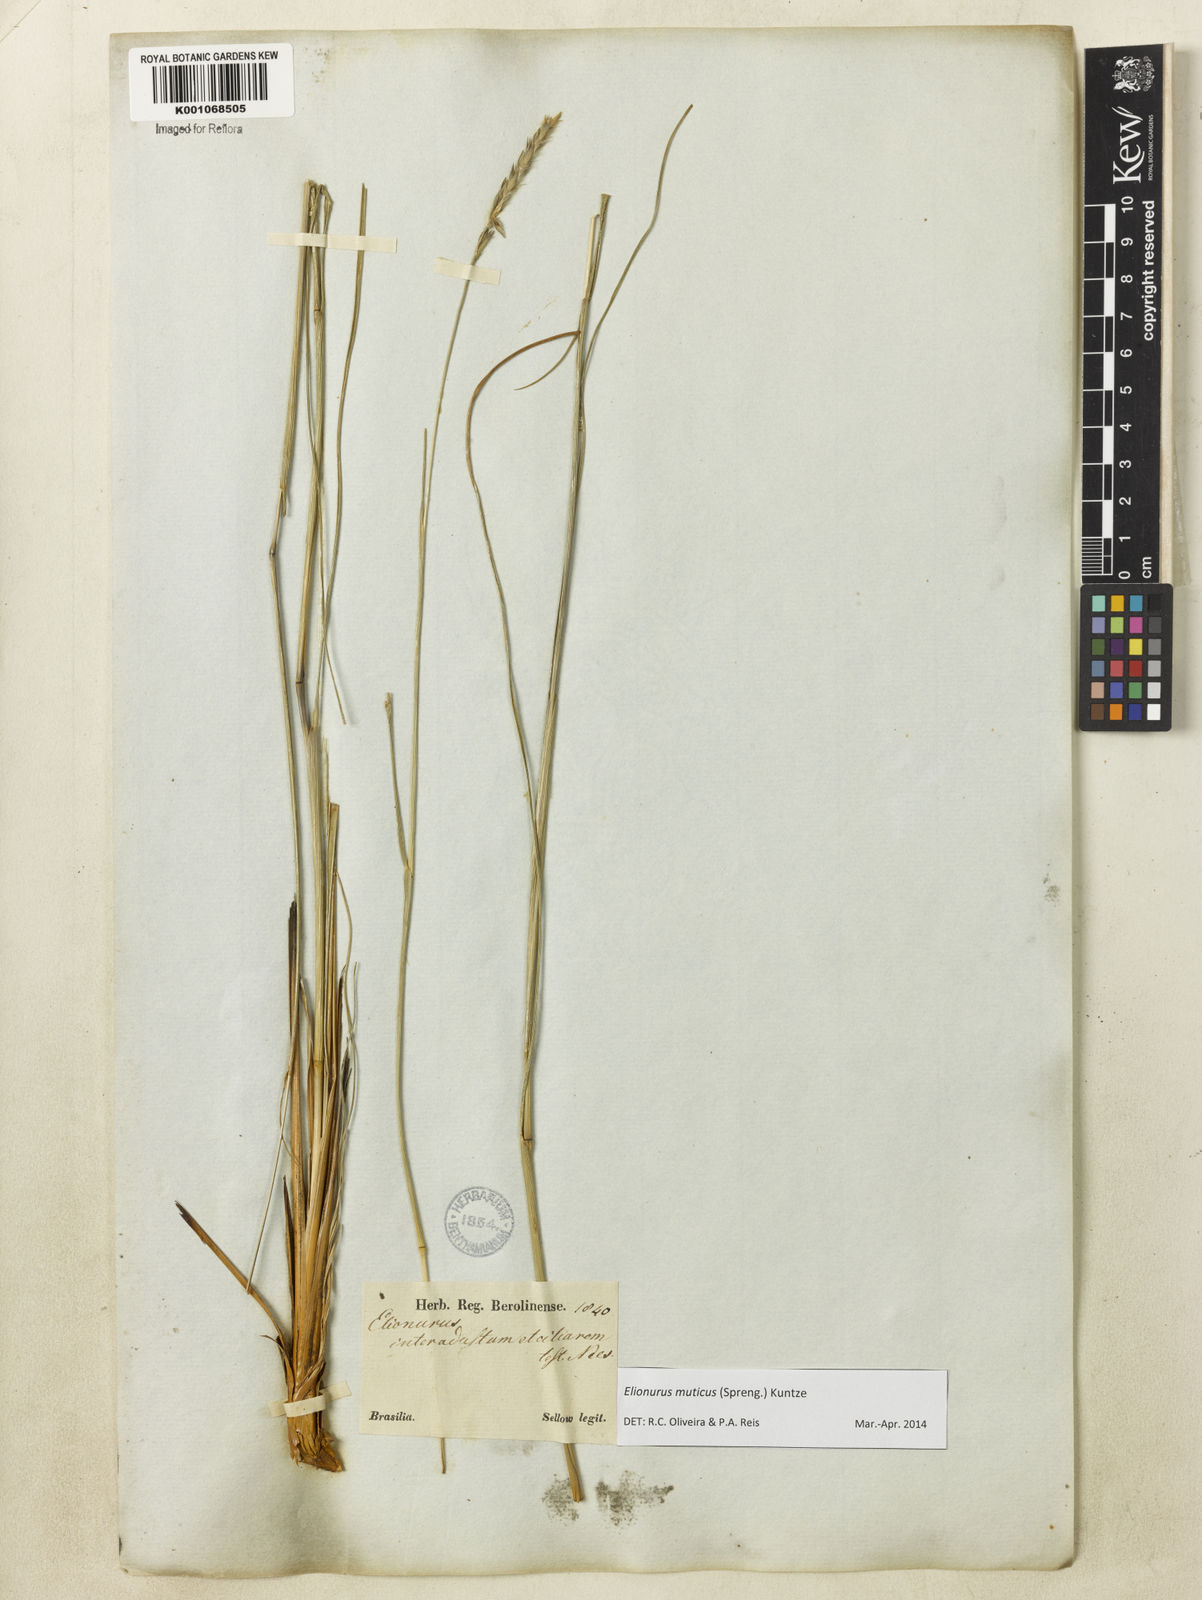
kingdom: Plantae
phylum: Tracheophyta
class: Liliopsida
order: Poales
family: Poaceae
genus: Elionurus
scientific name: Elionurus muticus
